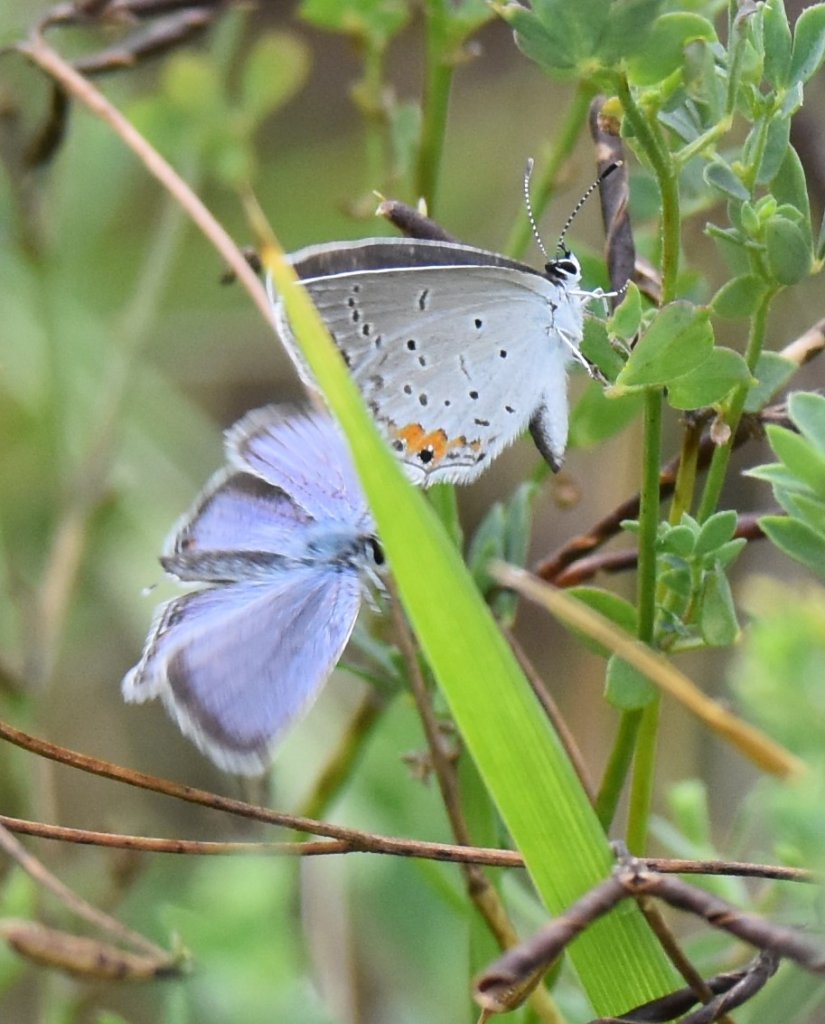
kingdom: Animalia
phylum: Arthropoda
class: Insecta
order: Lepidoptera
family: Lycaenidae
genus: Elkalyce
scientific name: Elkalyce comyntas
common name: Eastern Tailed-Blue
